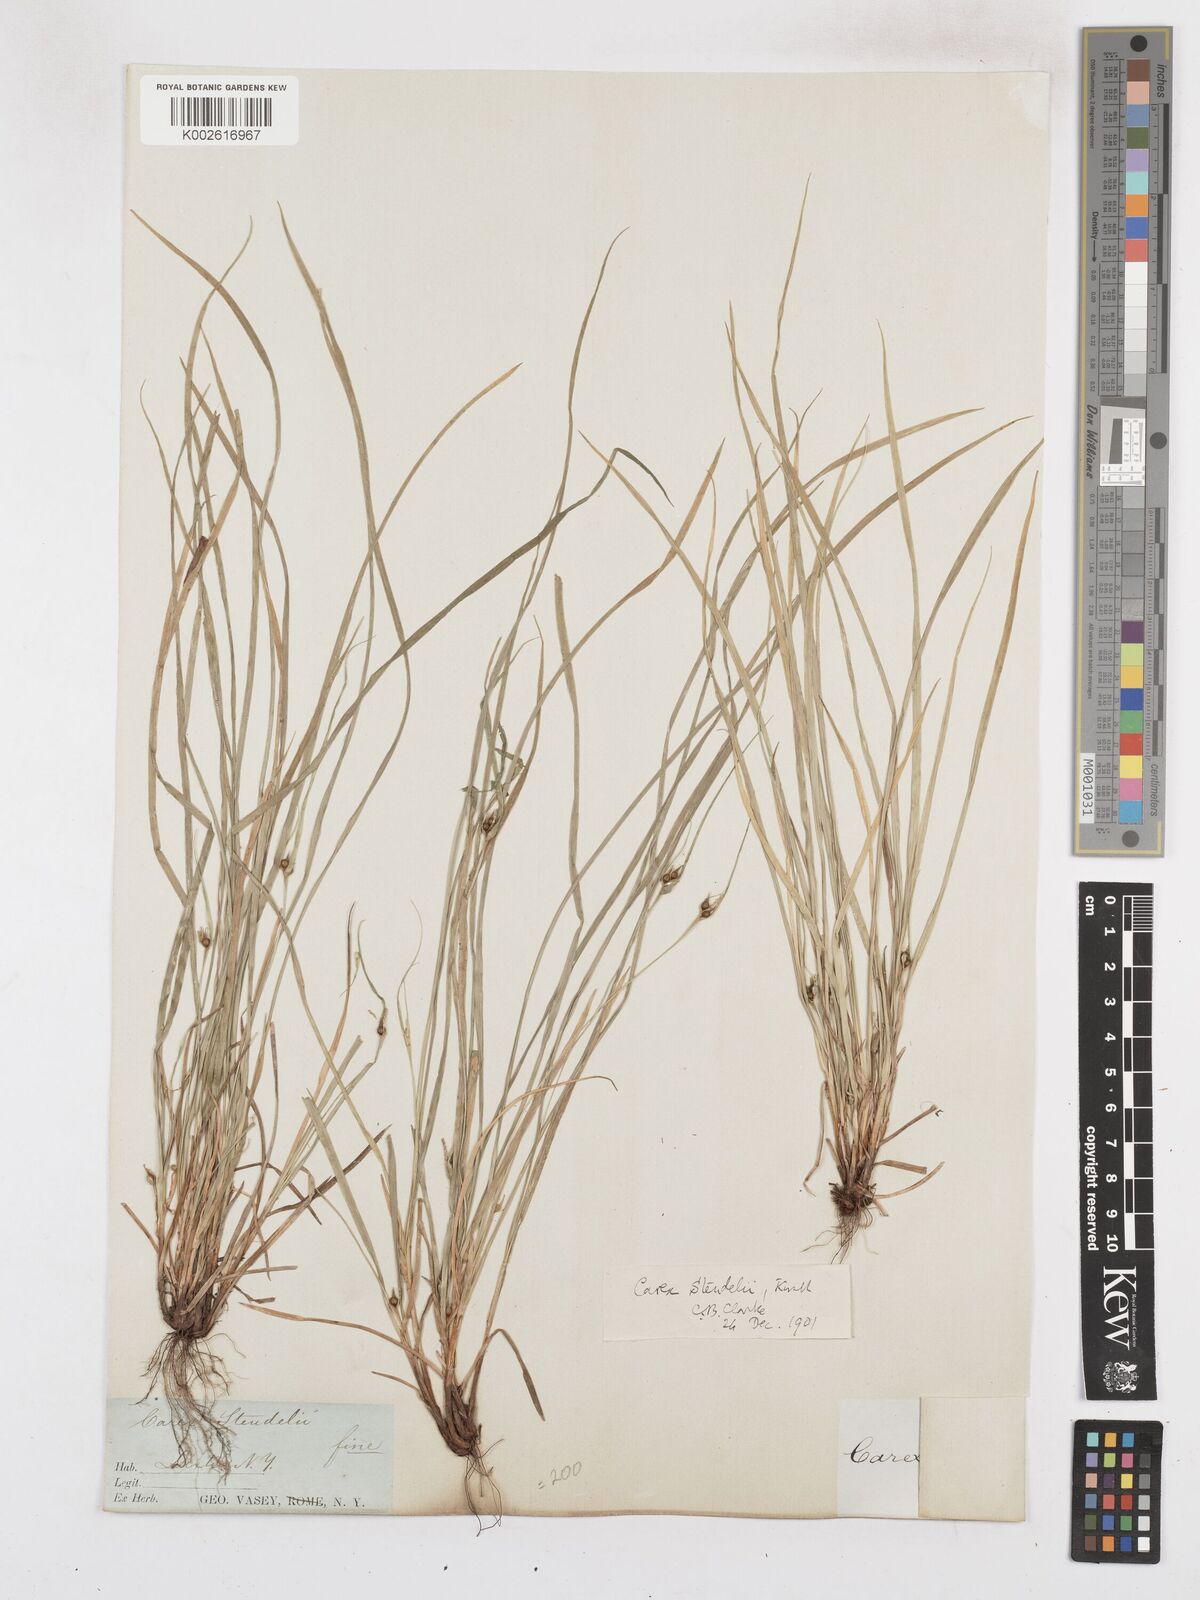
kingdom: Plantae
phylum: Tracheophyta
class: Liliopsida
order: Poales
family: Cyperaceae
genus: Carex
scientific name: Carex jamesii
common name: Grass sedge
